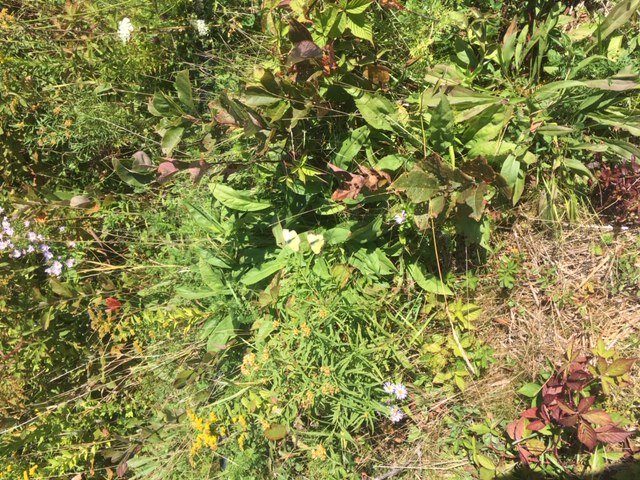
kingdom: Animalia
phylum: Arthropoda
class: Insecta
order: Lepidoptera
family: Pieridae
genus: Colias
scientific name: Colias philodice
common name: Clouded Sulphur
